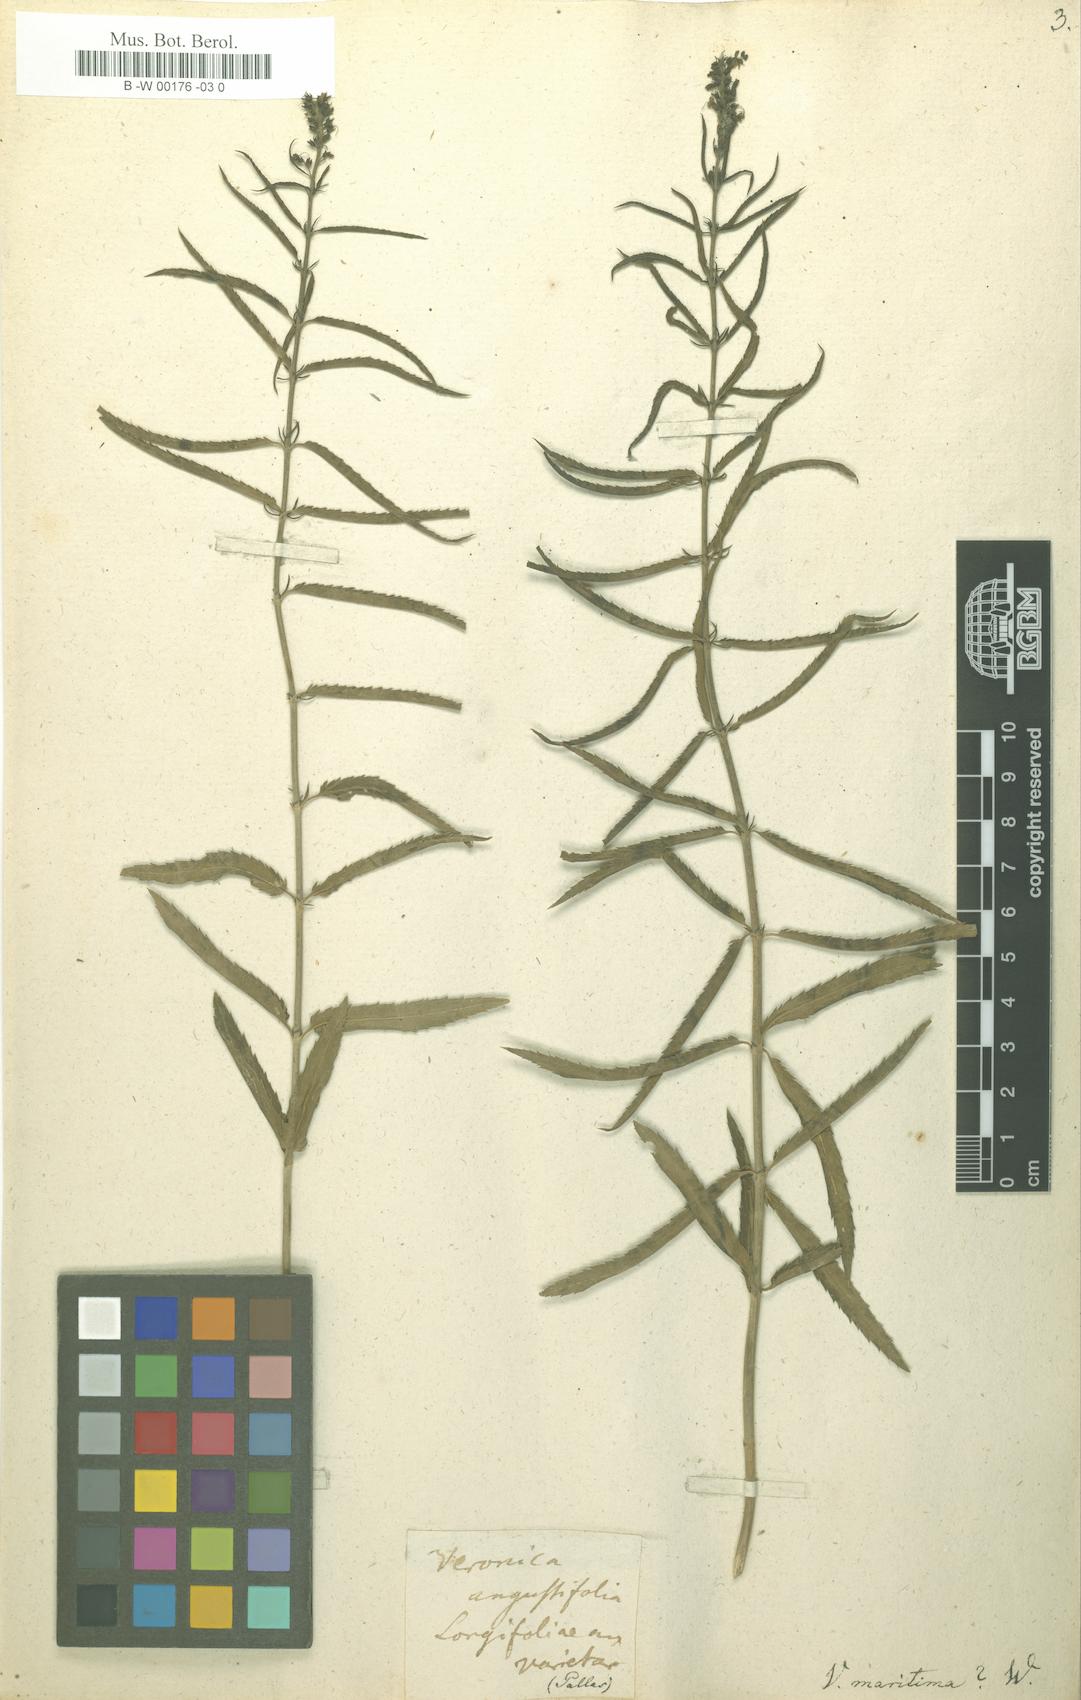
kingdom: Plantae
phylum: Tracheophyta
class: Magnoliopsida
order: Lamiales
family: Plantaginaceae
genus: Veronica
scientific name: Veronica maritima
